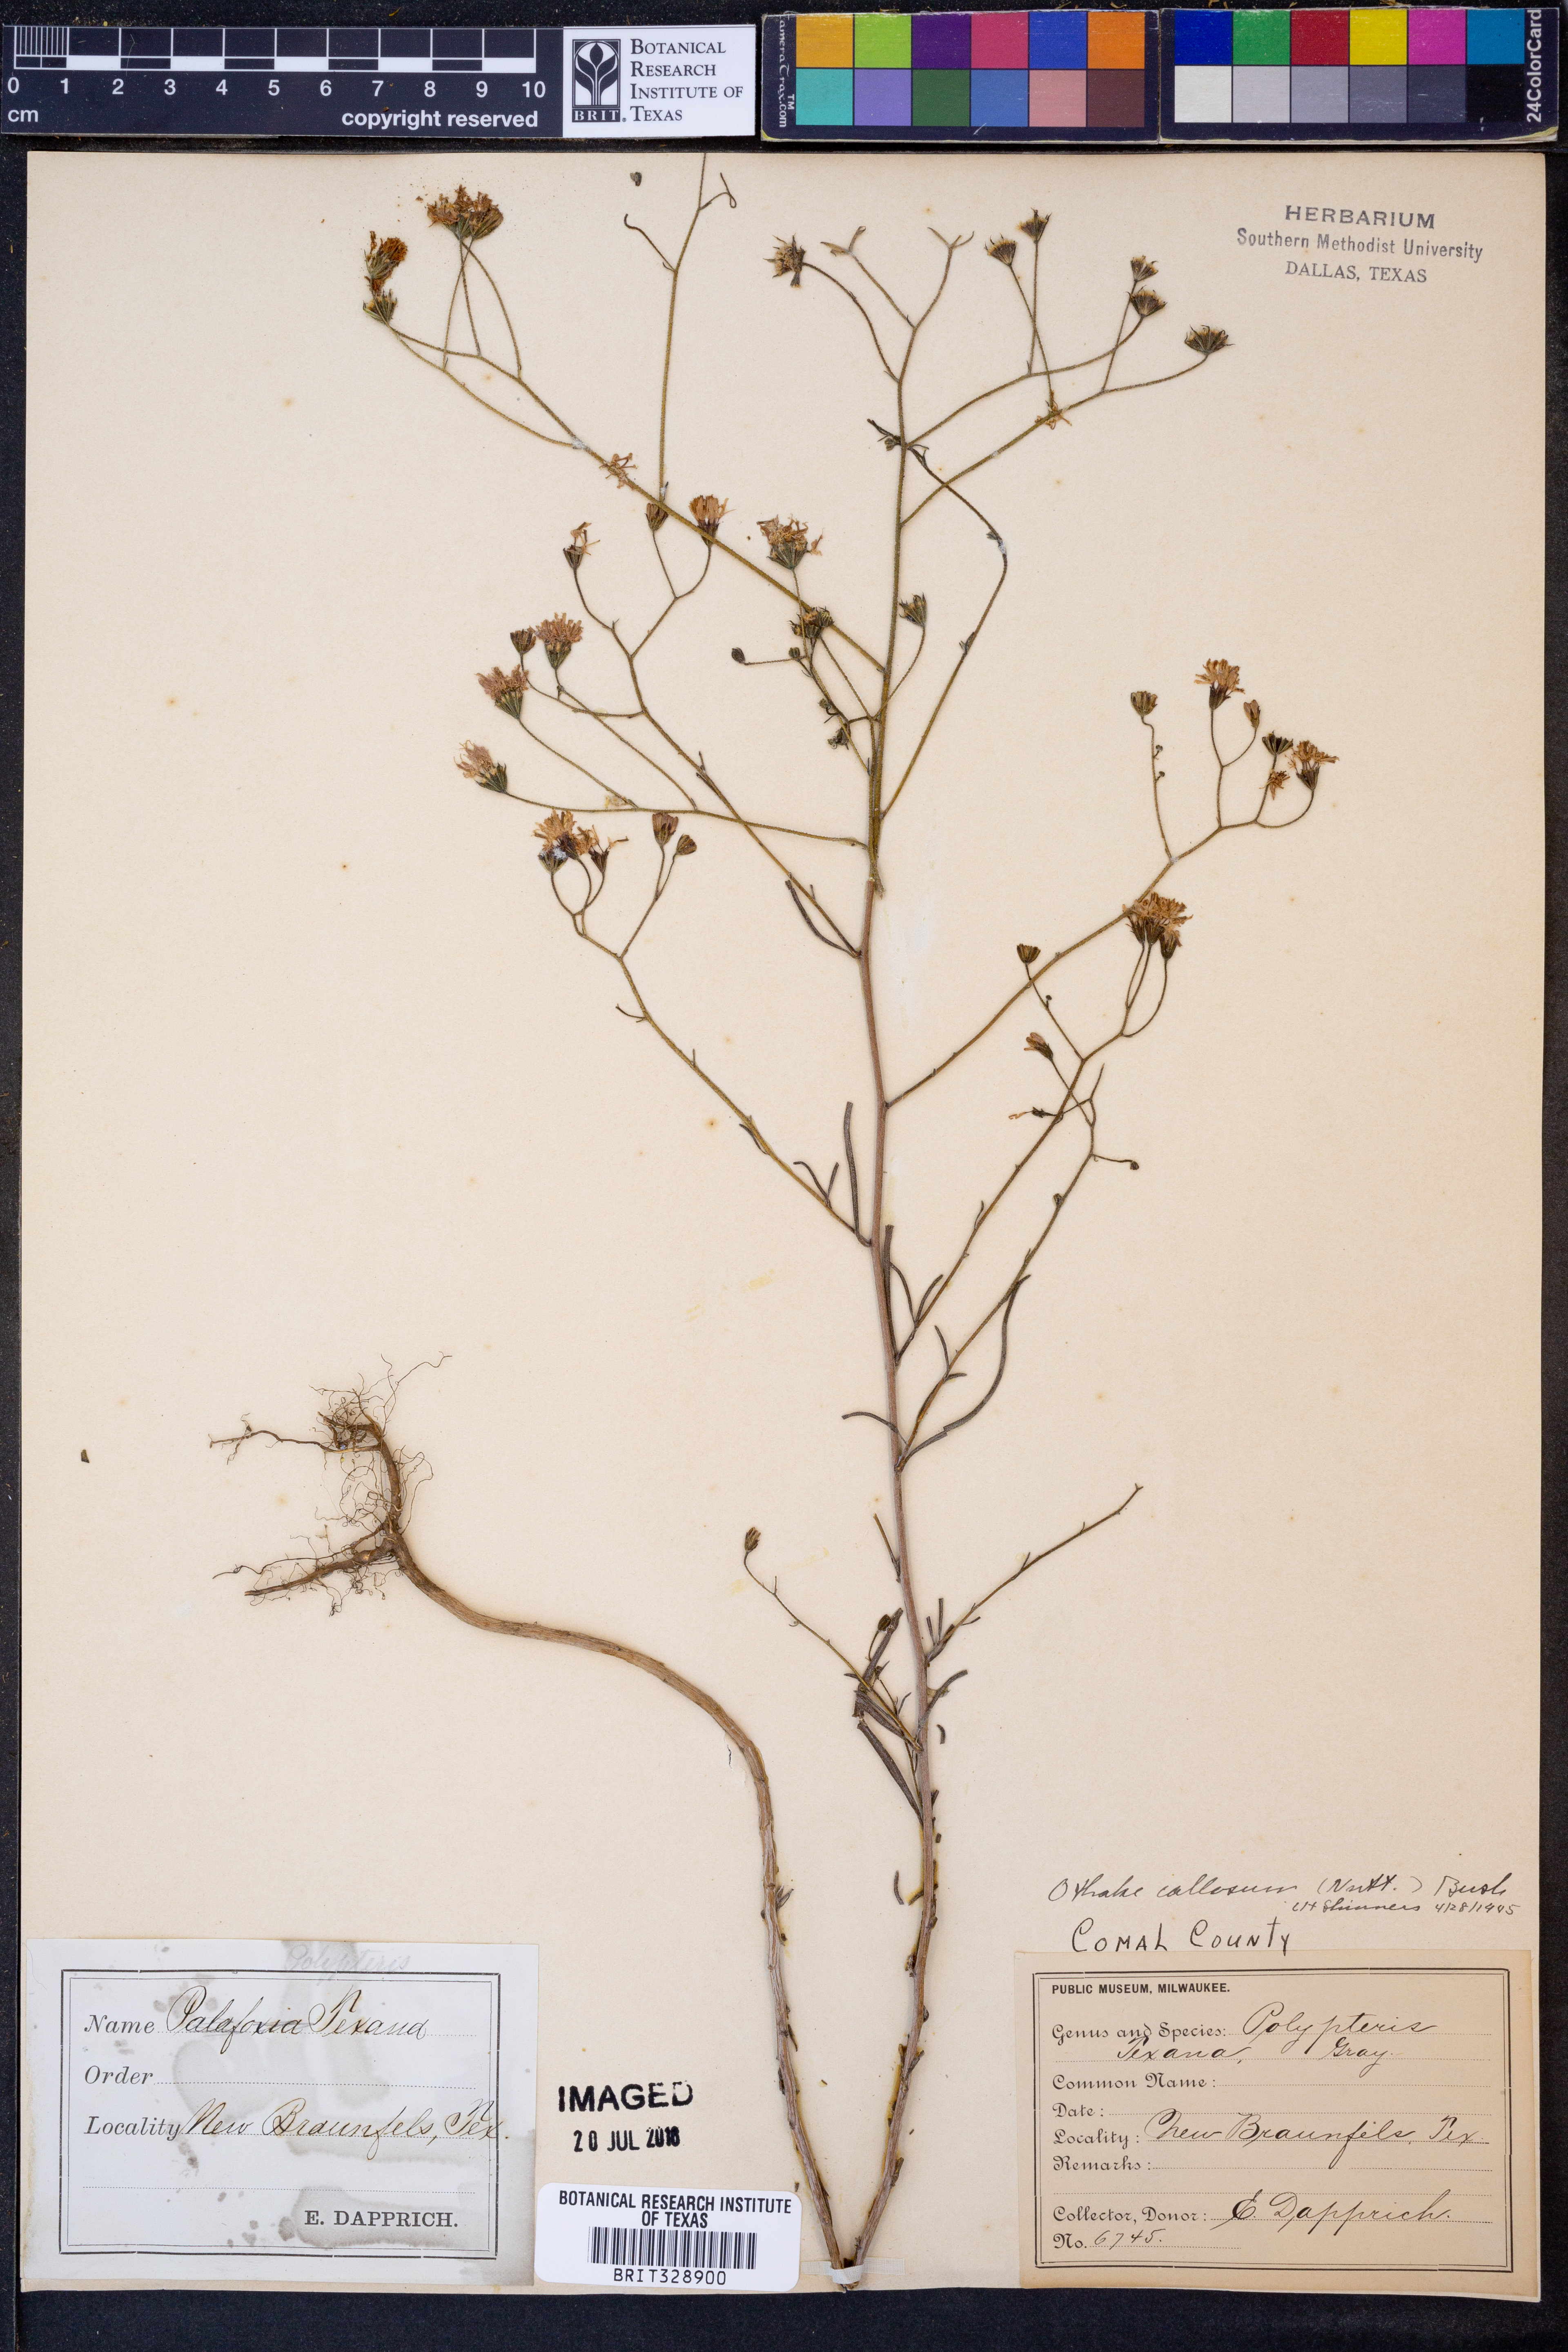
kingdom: Plantae
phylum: Tracheophyta
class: Magnoliopsida
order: Asterales
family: Asteraceae
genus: Palafoxia
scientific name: Palafoxia callosa
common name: Small palafox
